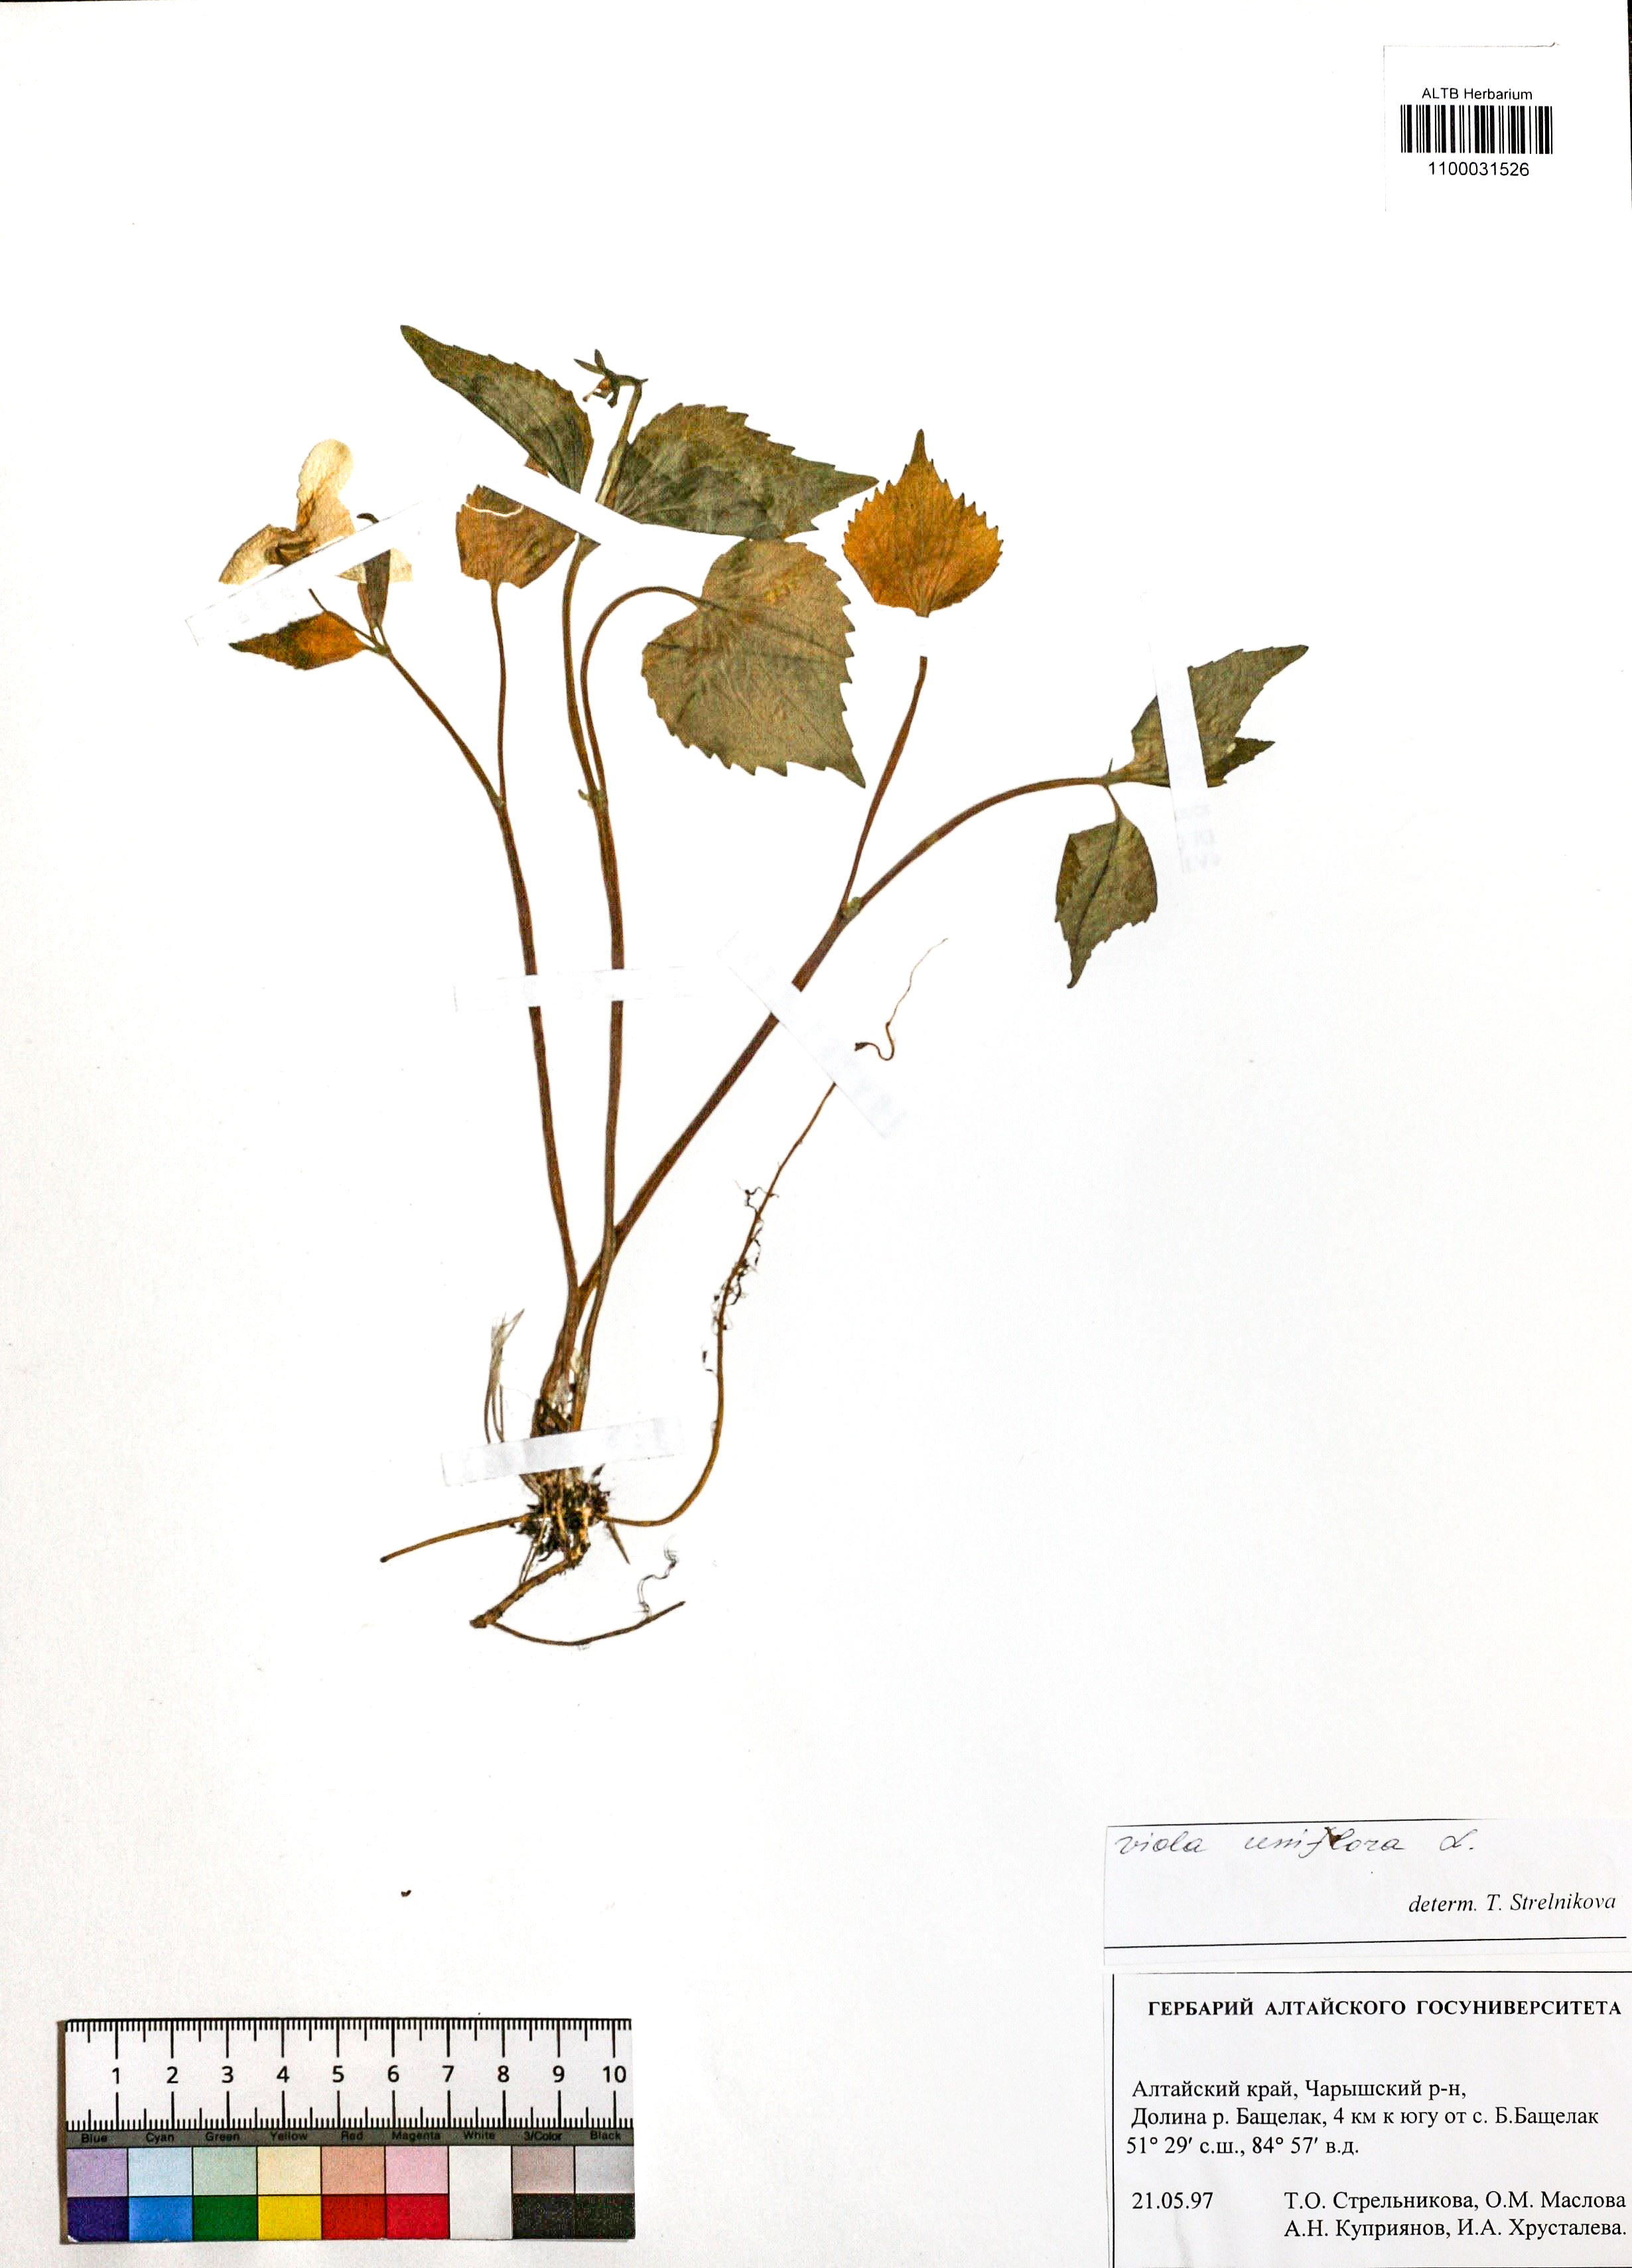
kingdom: Plantae
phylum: Tracheophyta
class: Magnoliopsida
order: Malpighiales
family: Violaceae
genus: Viola
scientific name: Viola uniflora
